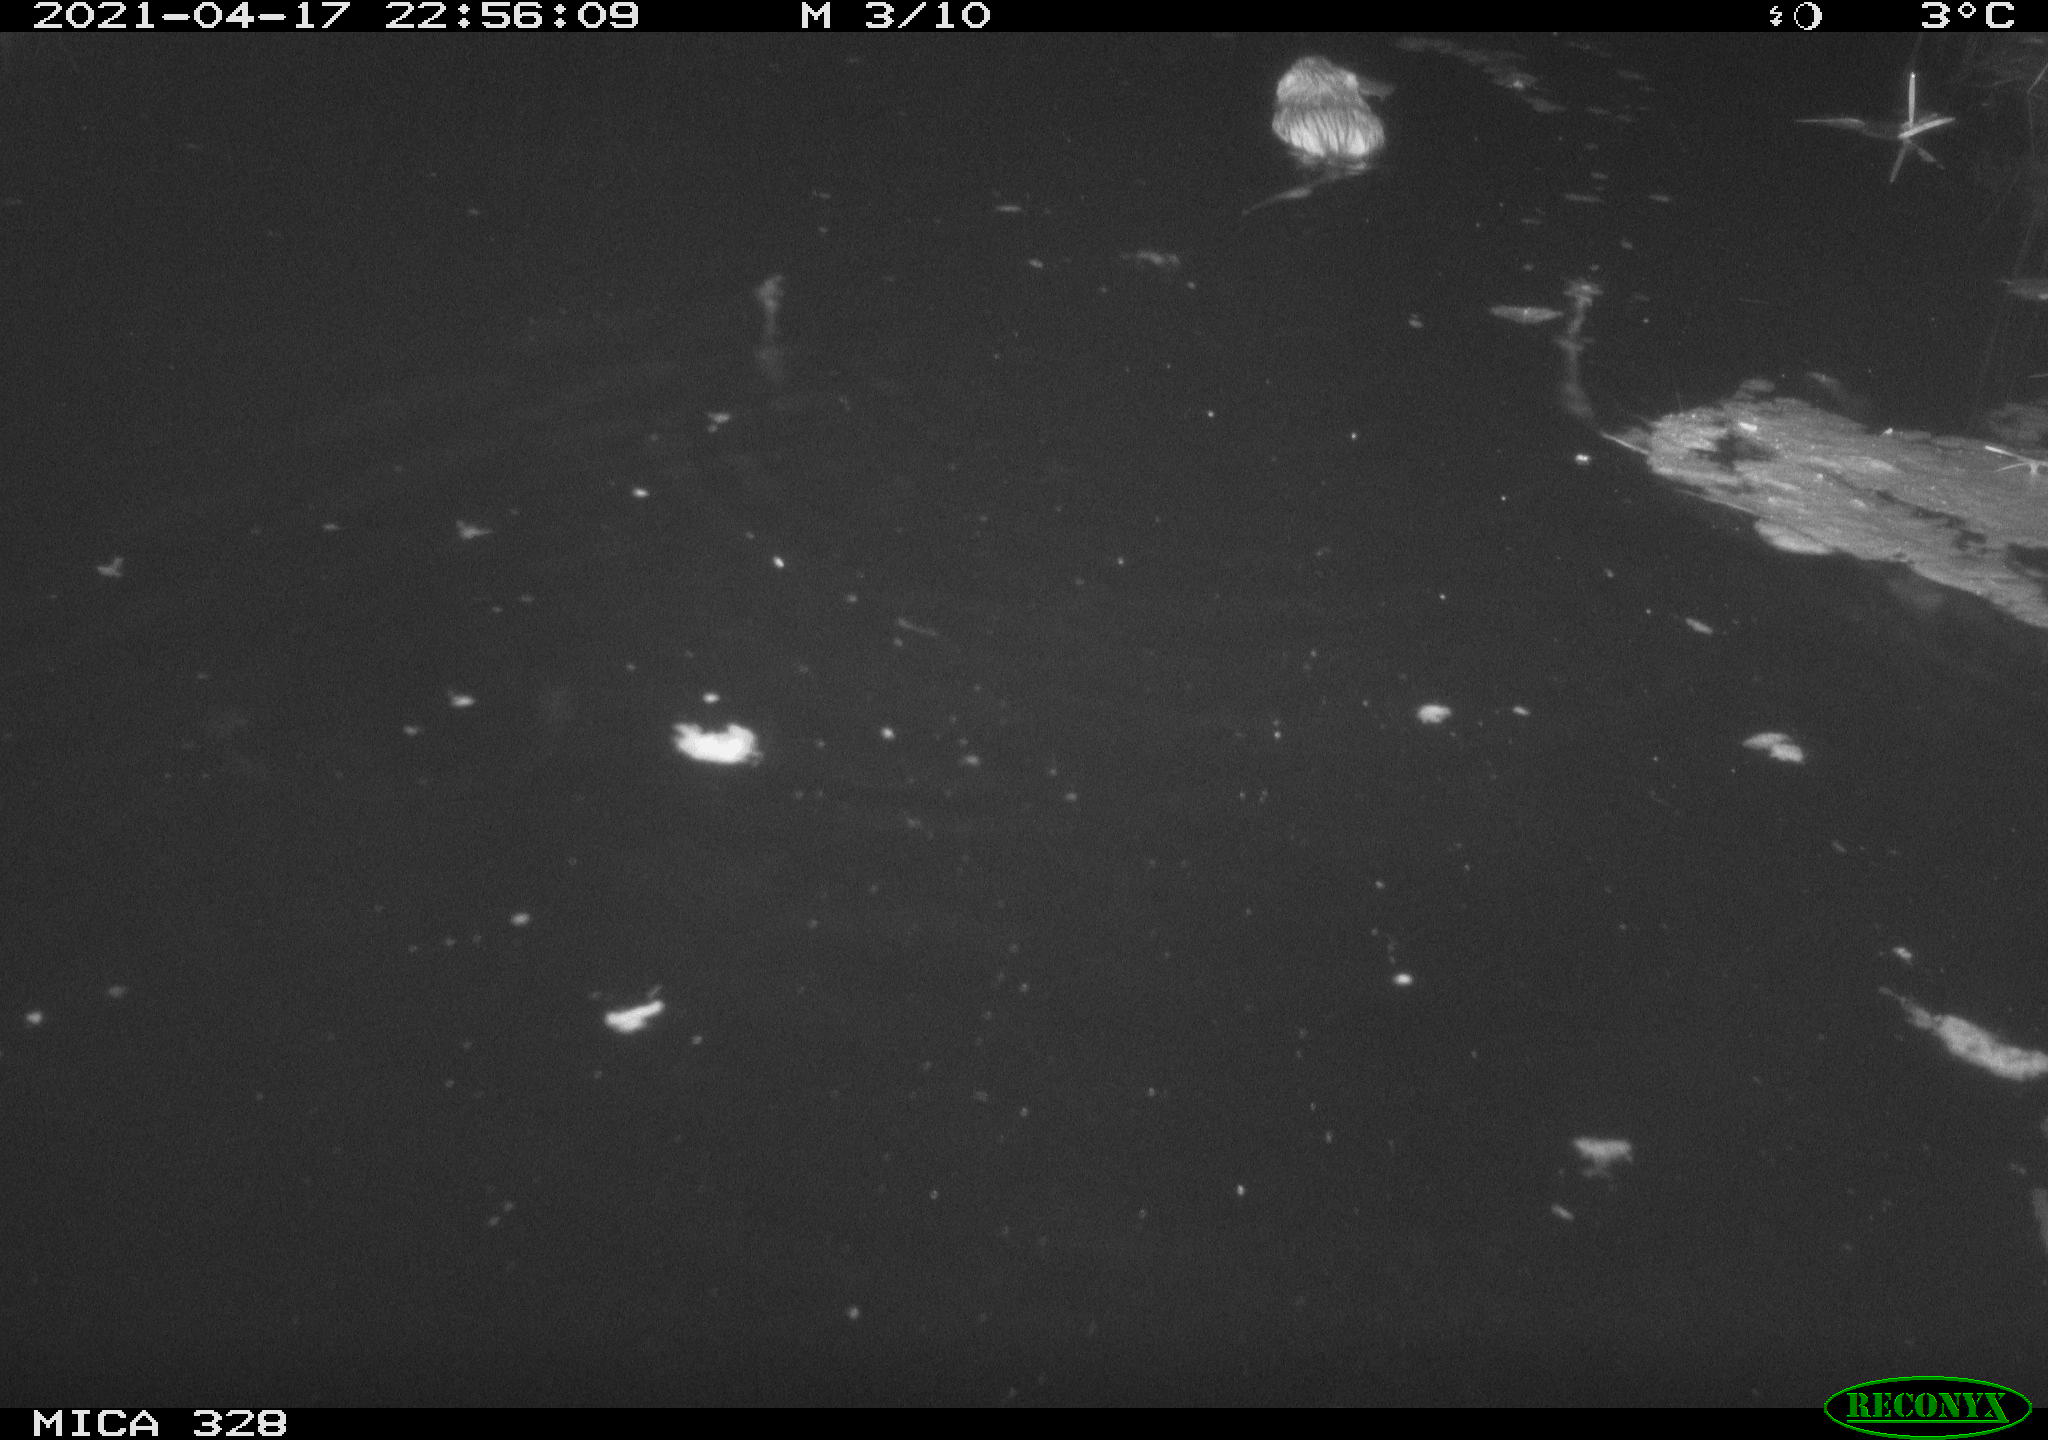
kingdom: Animalia
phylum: Chordata
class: Mammalia
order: Rodentia
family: Cricetidae
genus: Ondatra
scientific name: Ondatra zibethicus
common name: Muskrat
